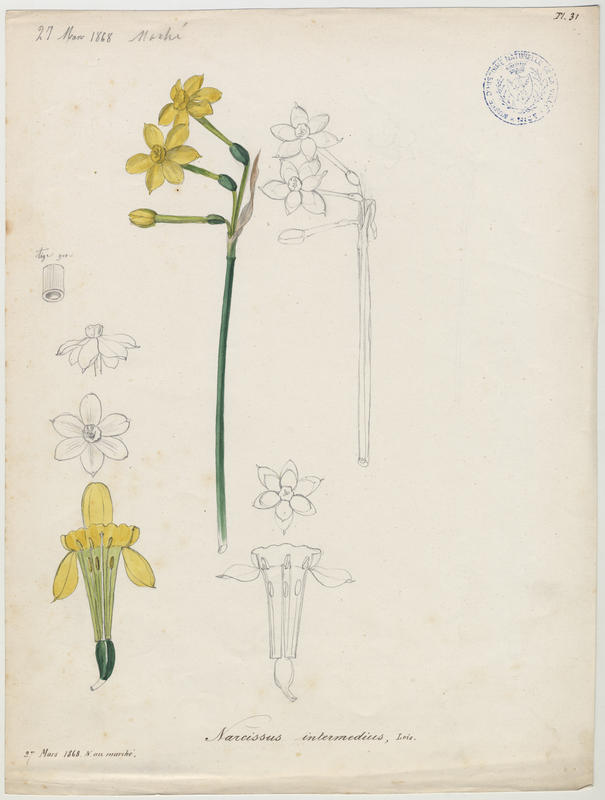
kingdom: Plantae
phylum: Tracheophyta
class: Liliopsida
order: Asparagales
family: Amaryllidaceae
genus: Narcissus
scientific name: Narcissus compressus
